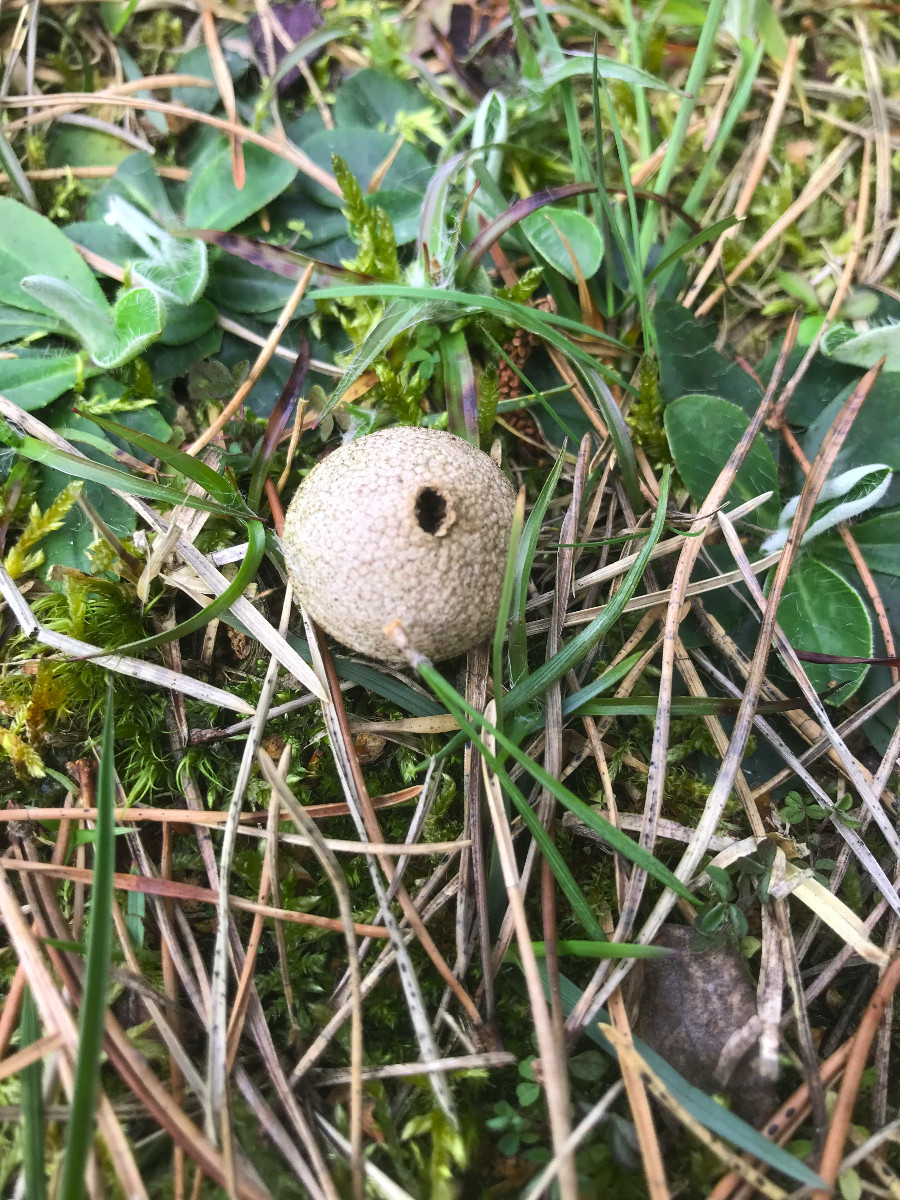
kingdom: Fungi
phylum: Basidiomycota
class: Agaricomycetes
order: Agaricales
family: Agaricaceae
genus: Lycoperdon
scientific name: Lycoperdon
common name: støvbold
